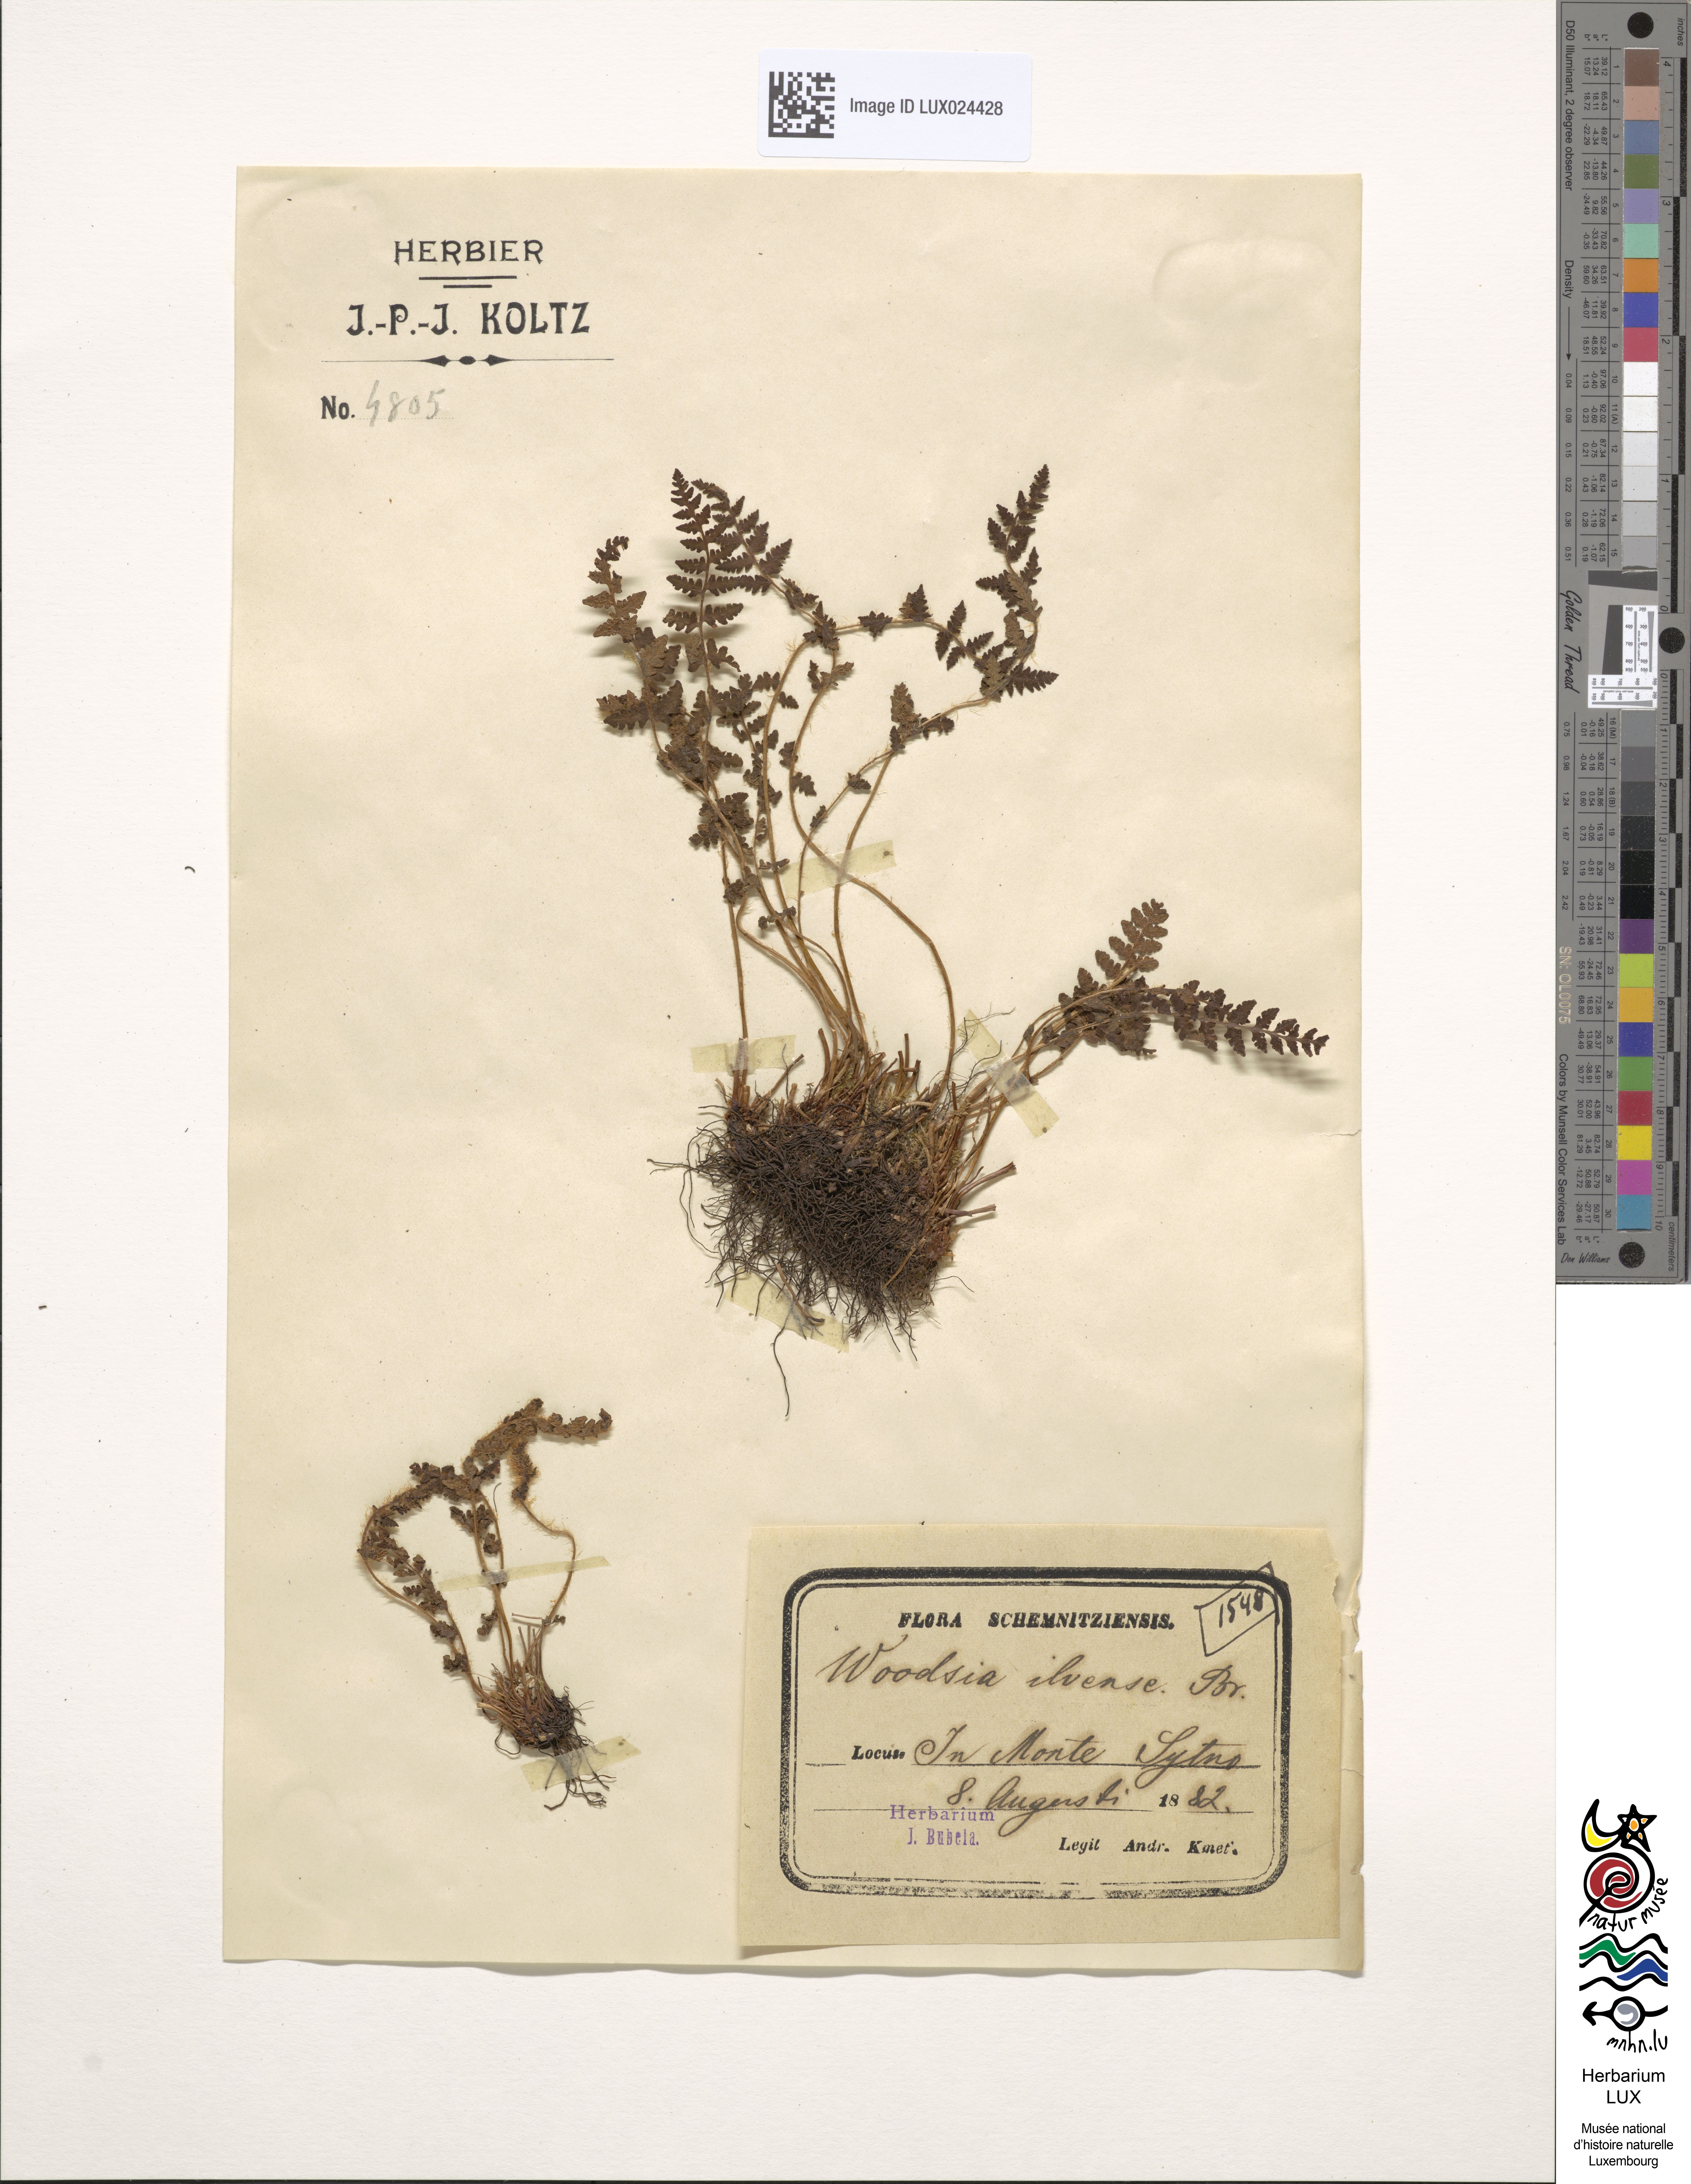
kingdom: Plantae
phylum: Tracheophyta
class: Polypodiopsida
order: Polypodiales
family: Woodsiaceae
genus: Woodsia
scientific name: Woodsia ilvensis
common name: Fragrant woodsia
